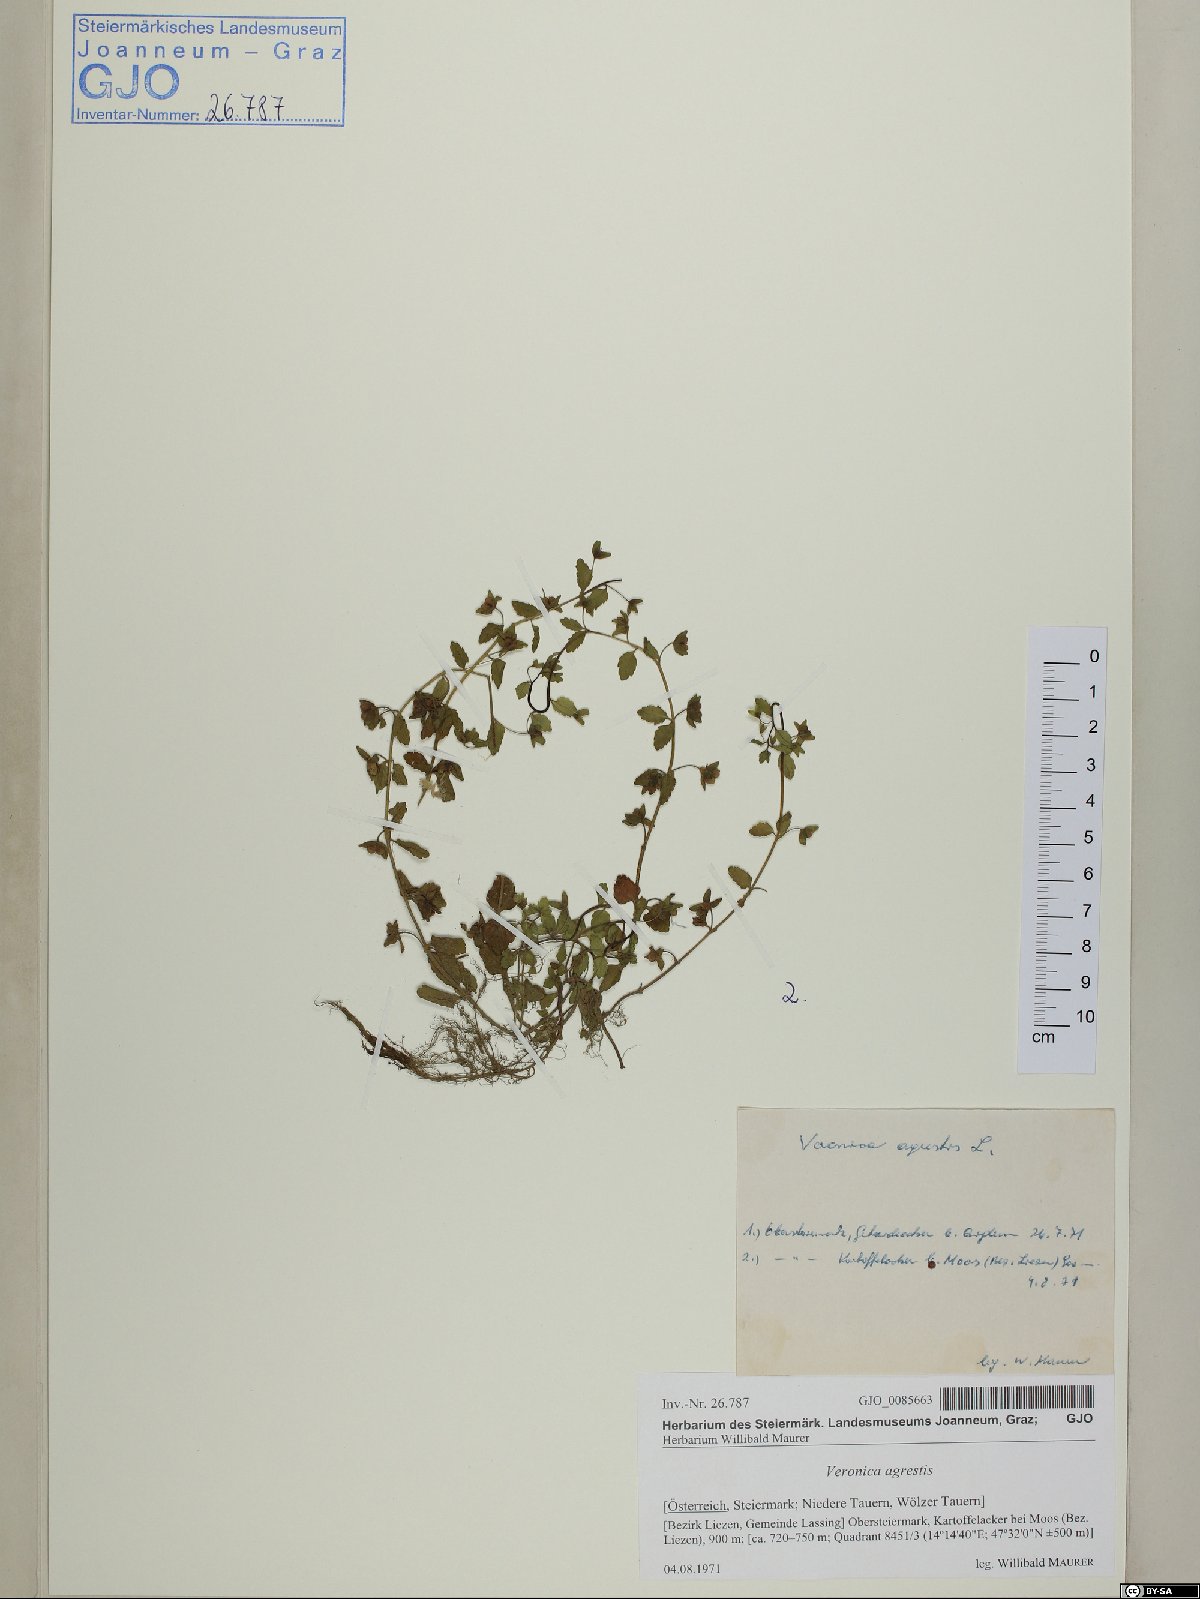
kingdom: Plantae
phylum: Tracheophyta
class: Magnoliopsida
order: Lamiales
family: Plantaginaceae
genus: Veronica
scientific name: Veronica agrestis
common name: Green field-speedwell
